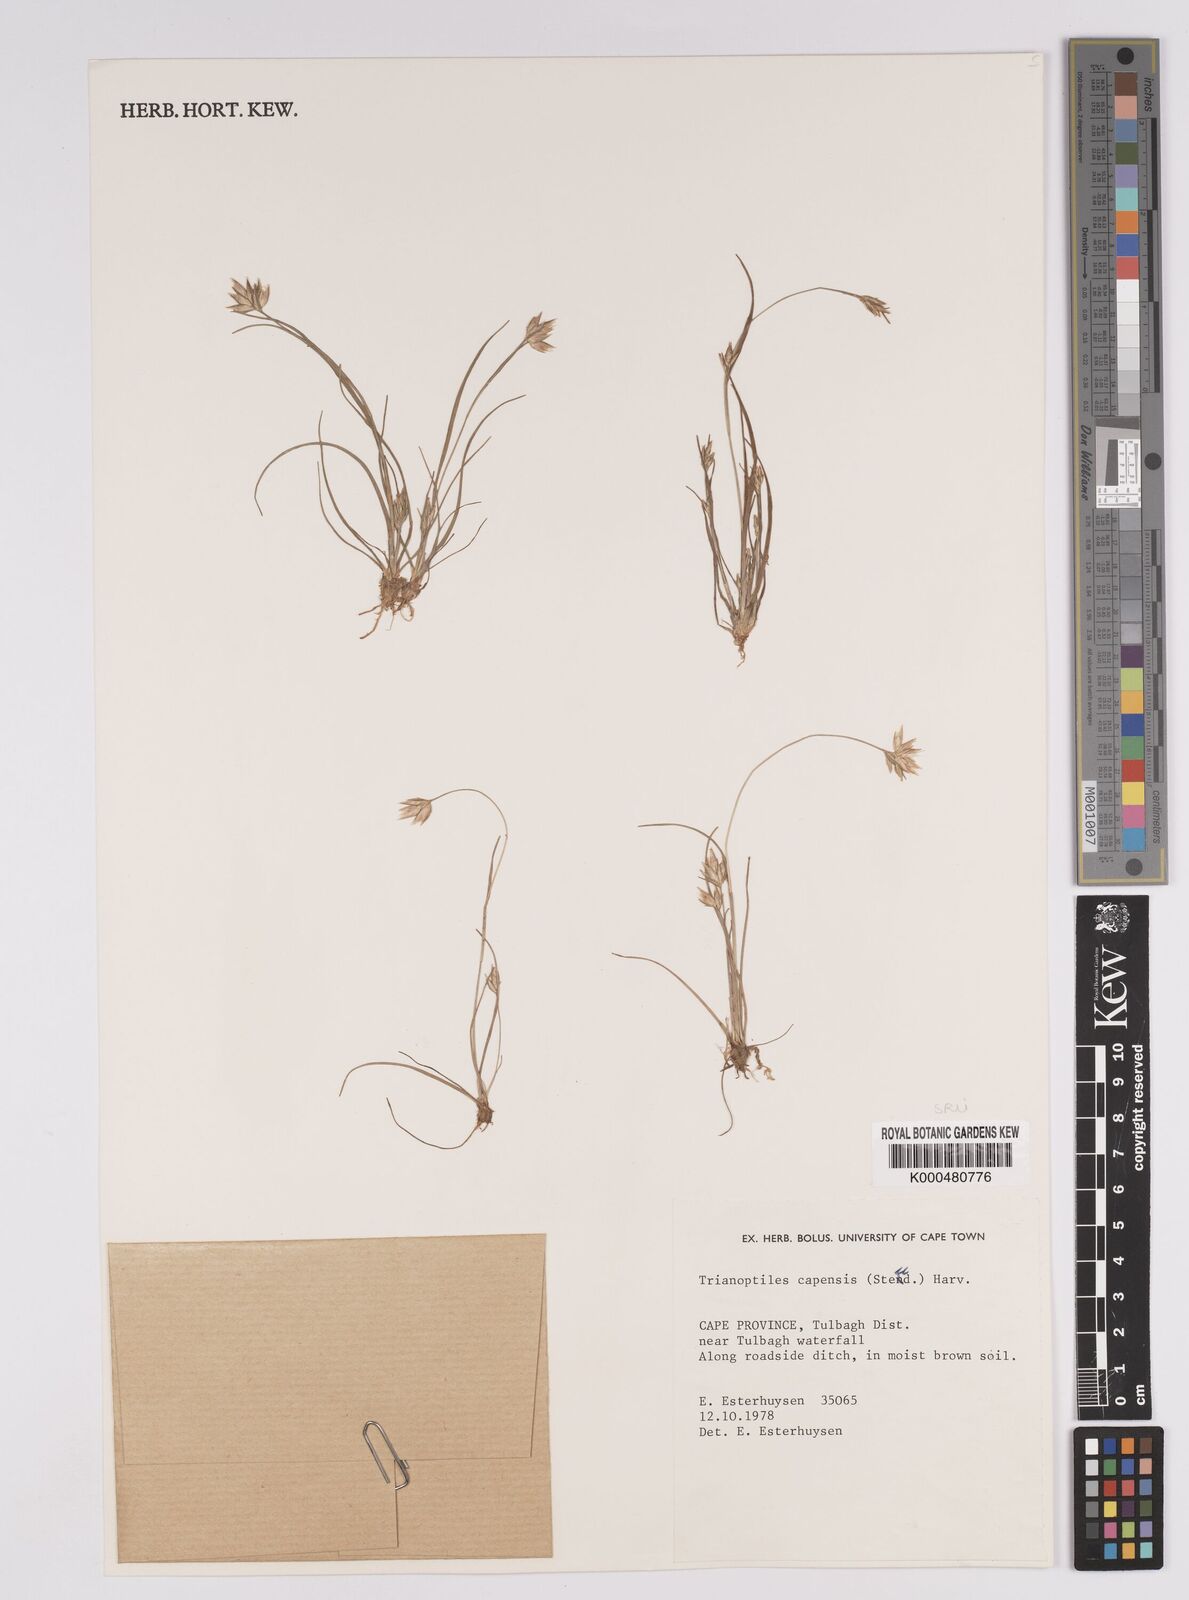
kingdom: Plantae
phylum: Tracheophyta
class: Liliopsida
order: Poales
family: Cyperaceae
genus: Trianoptiles
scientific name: Trianoptiles capensis
